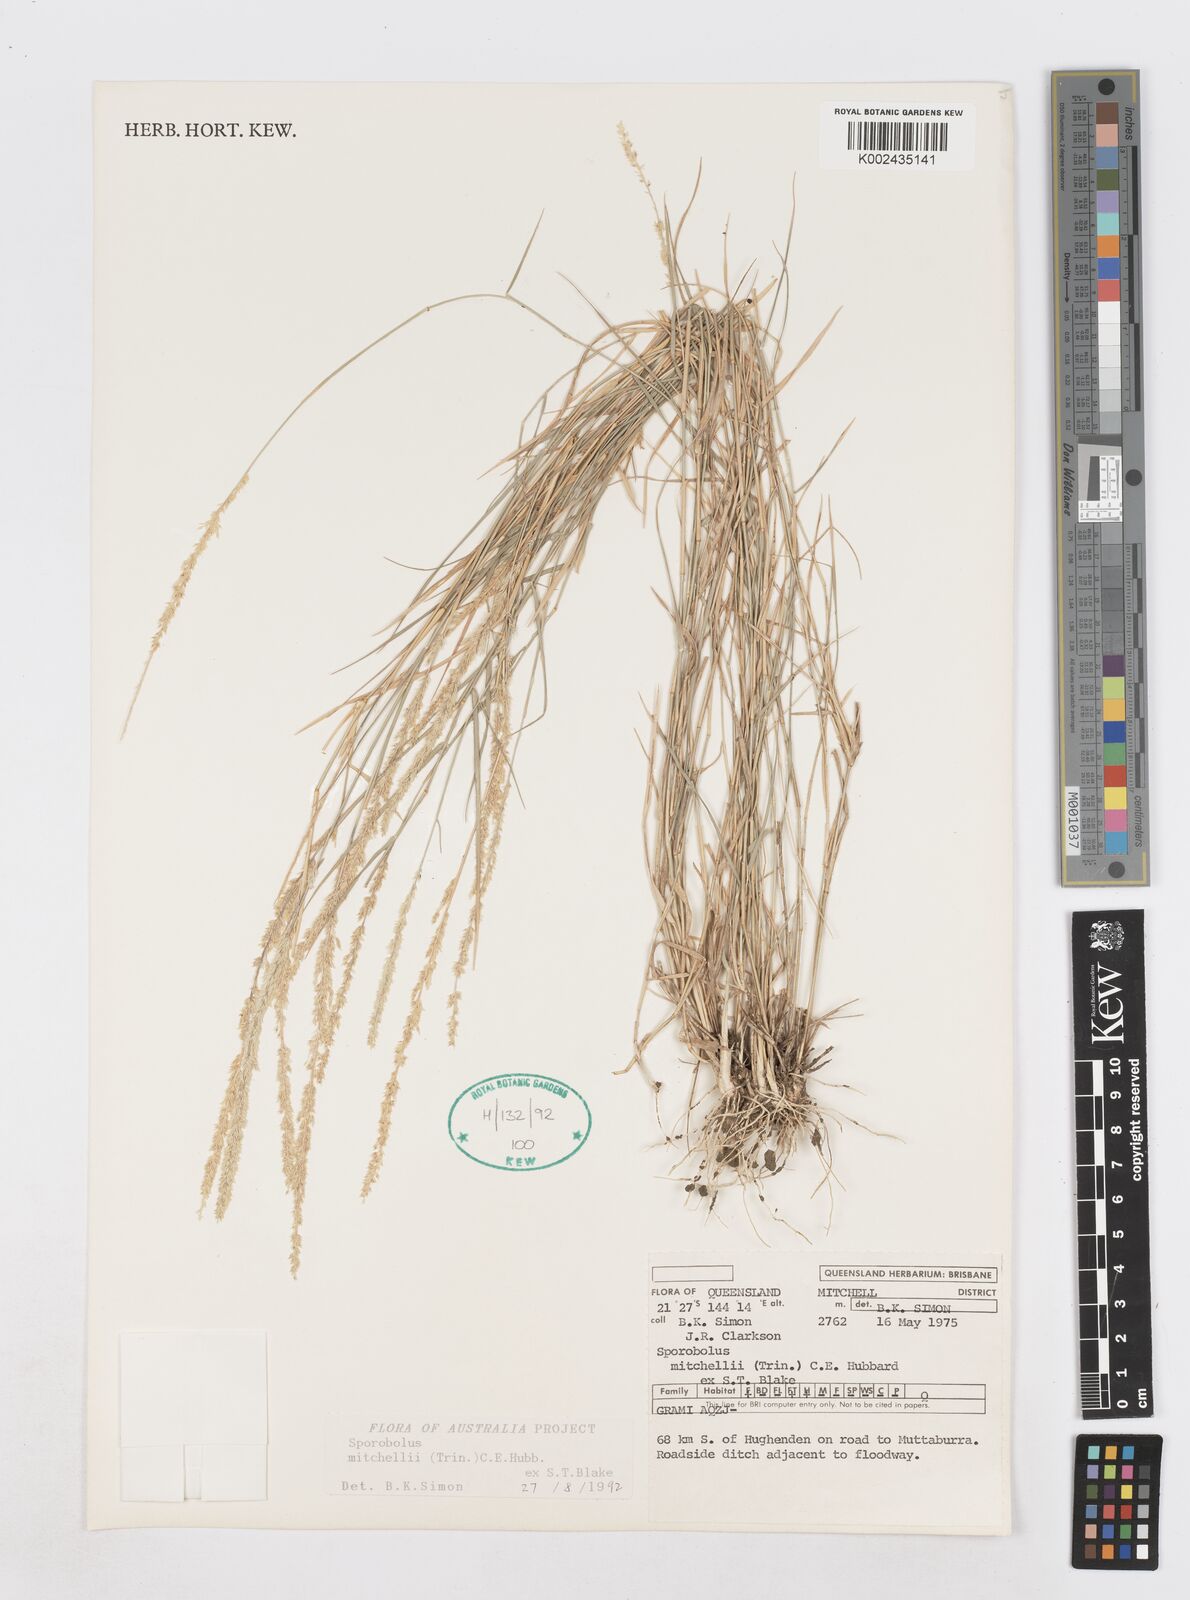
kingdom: Plantae
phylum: Tracheophyta
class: Liliopsida
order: Poales
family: Poaceae
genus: Sporobolus
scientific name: Sporobolus mitchellii
